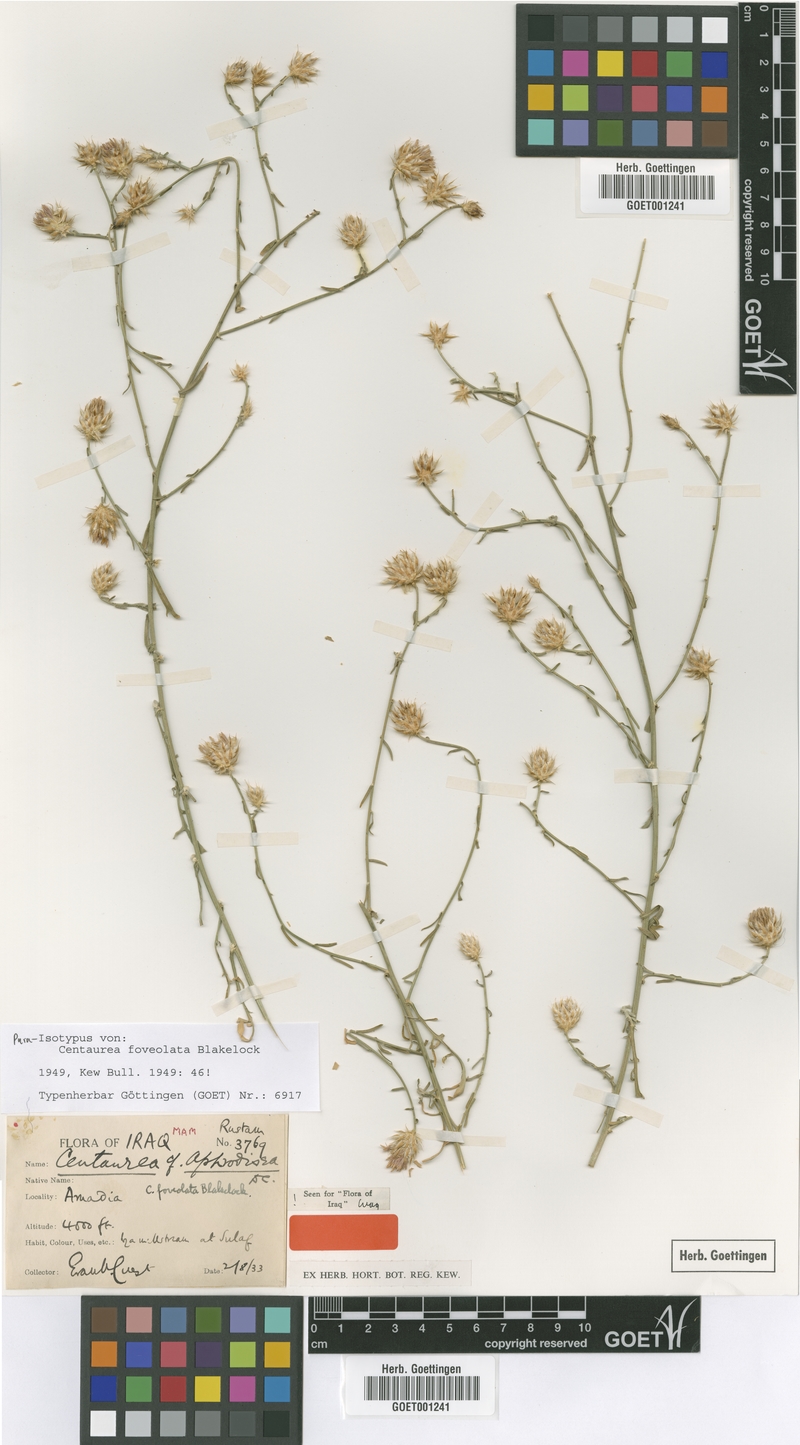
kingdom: Plantae
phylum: Tracheophyta
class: Magnoliopsida
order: Asterales
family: Asteraceae
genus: Centaurea
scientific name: Centaurea foveolata
